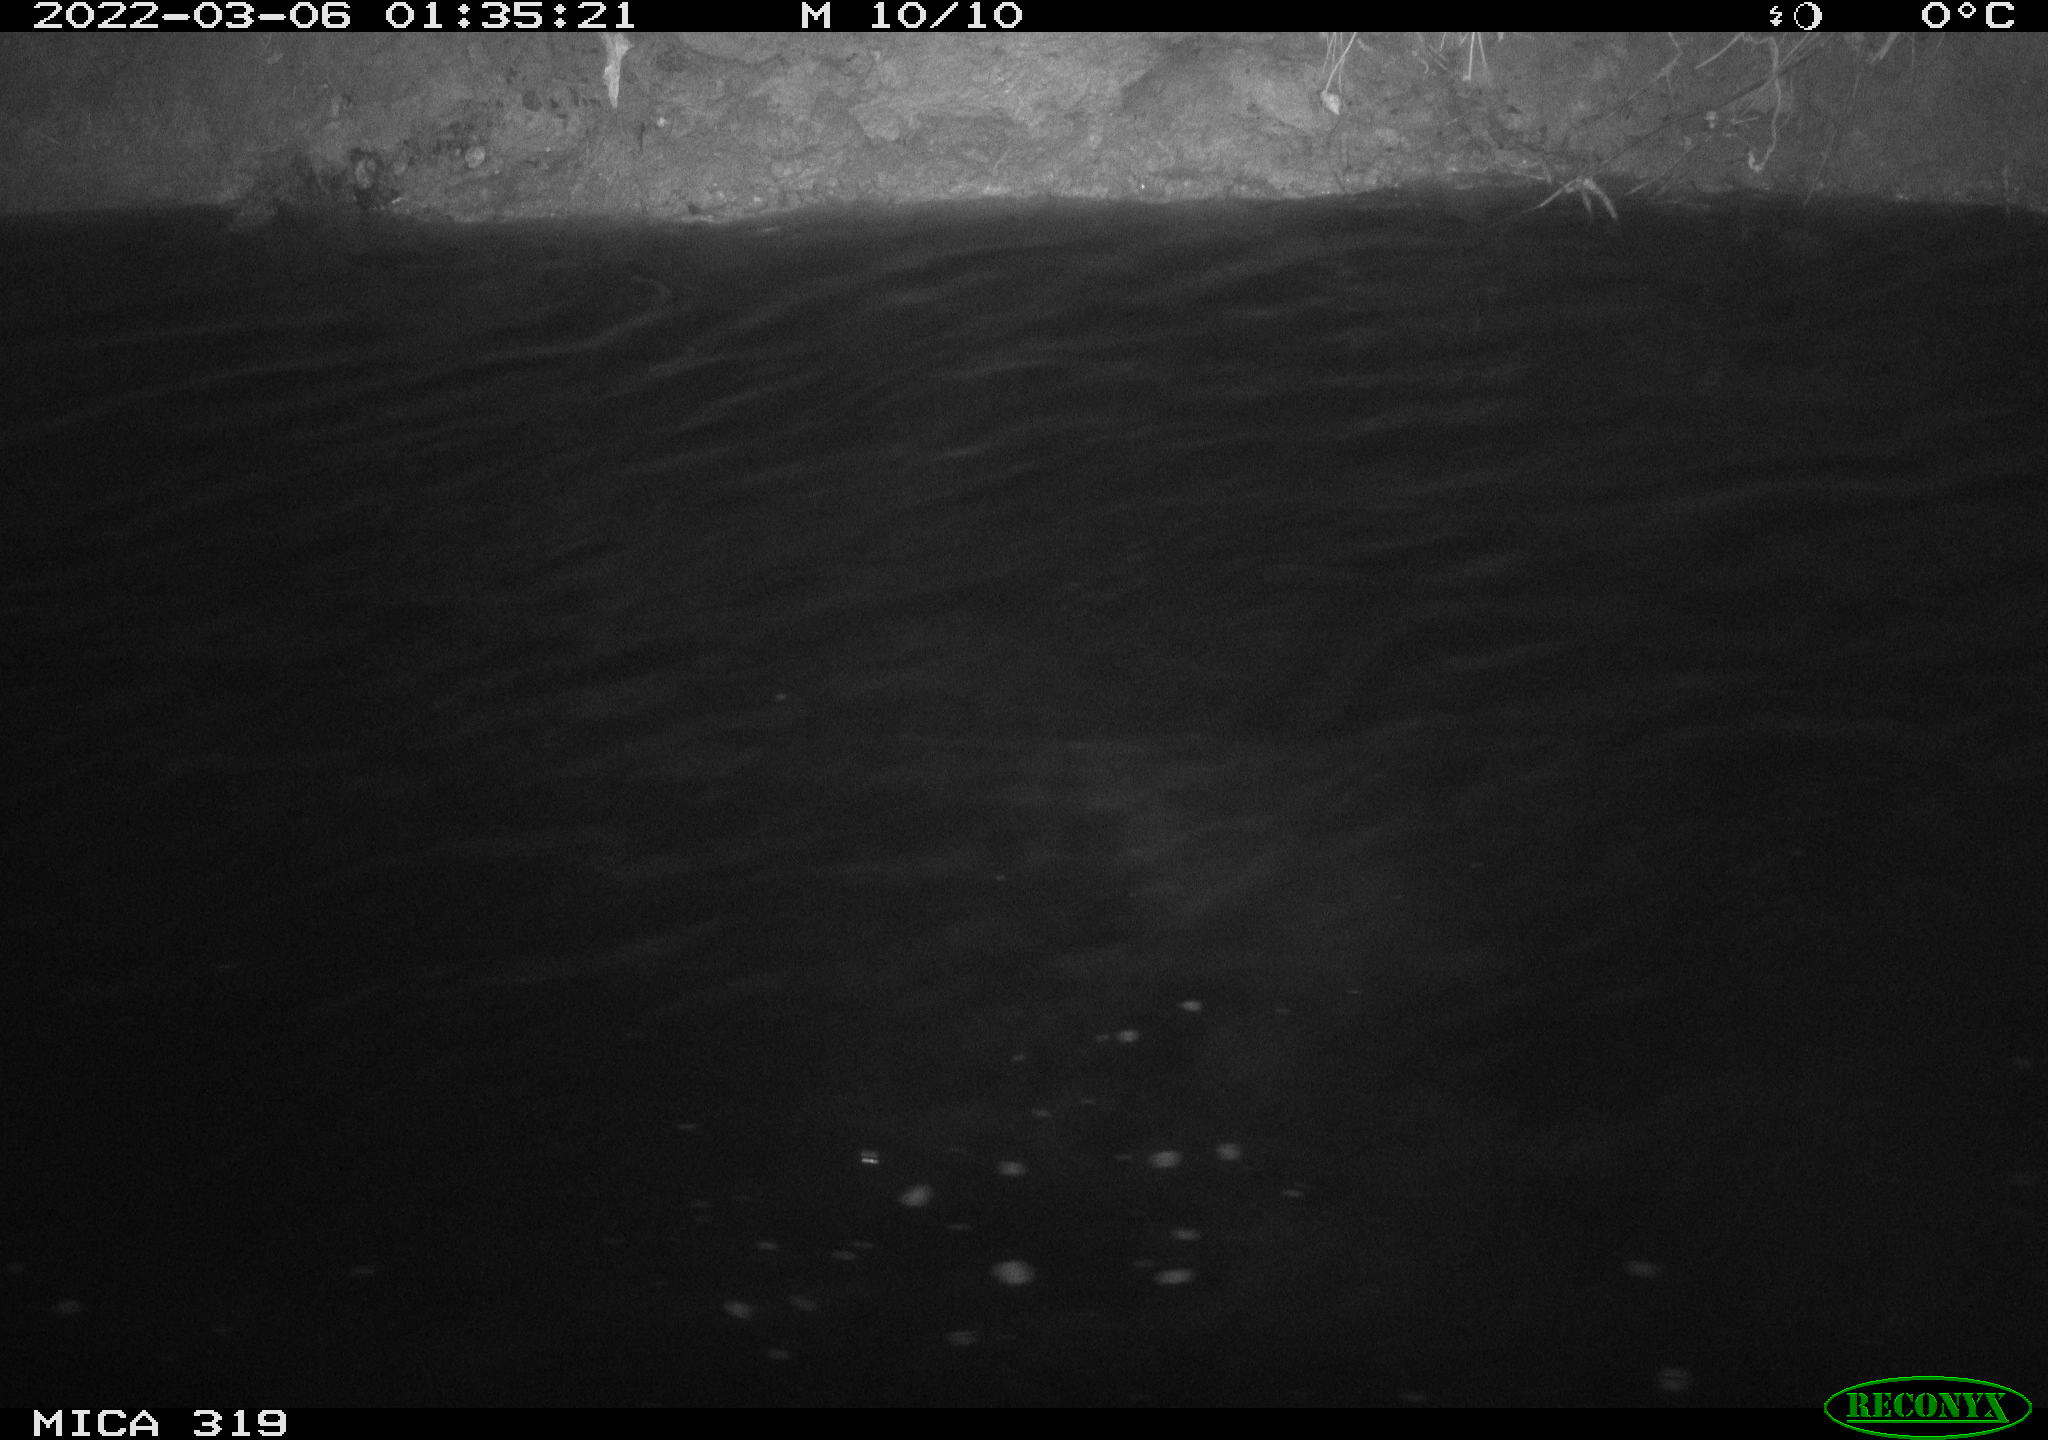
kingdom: Animalia
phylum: Chordata
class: Aves
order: Anseriformes
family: Anatidae
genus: Anas
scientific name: Anas platyrhynchos
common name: Mallard
